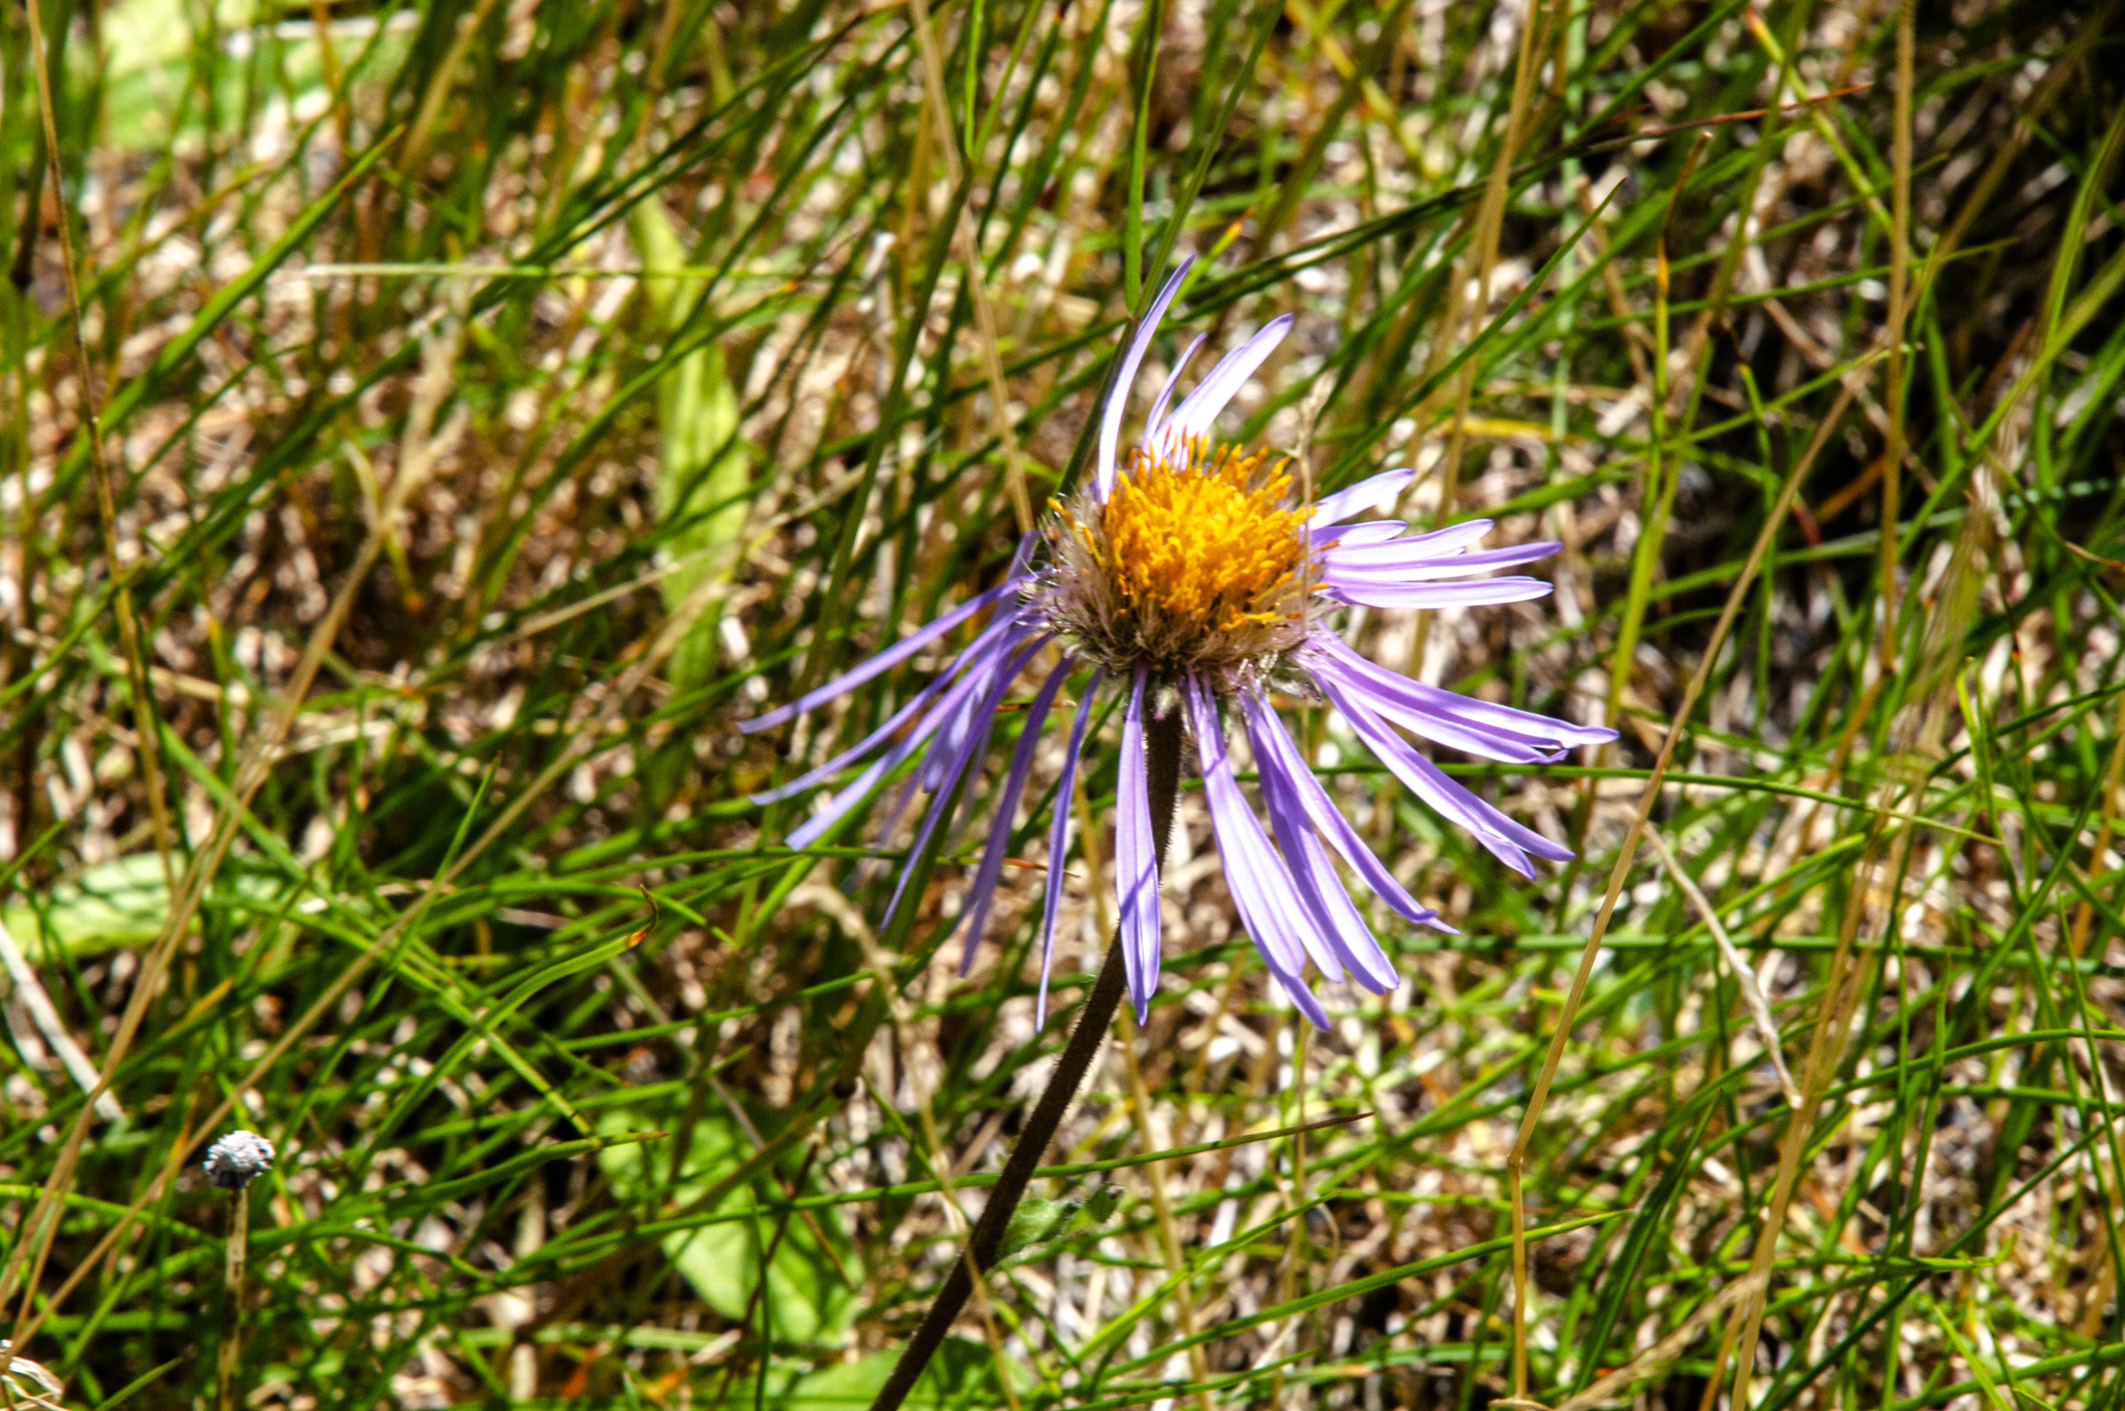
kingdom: Plantae
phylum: Tracheophyta
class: Magnoliopsida
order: Asterales
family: Asteraceae
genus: Tibetiodes
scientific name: Tibetiodes flaccida
